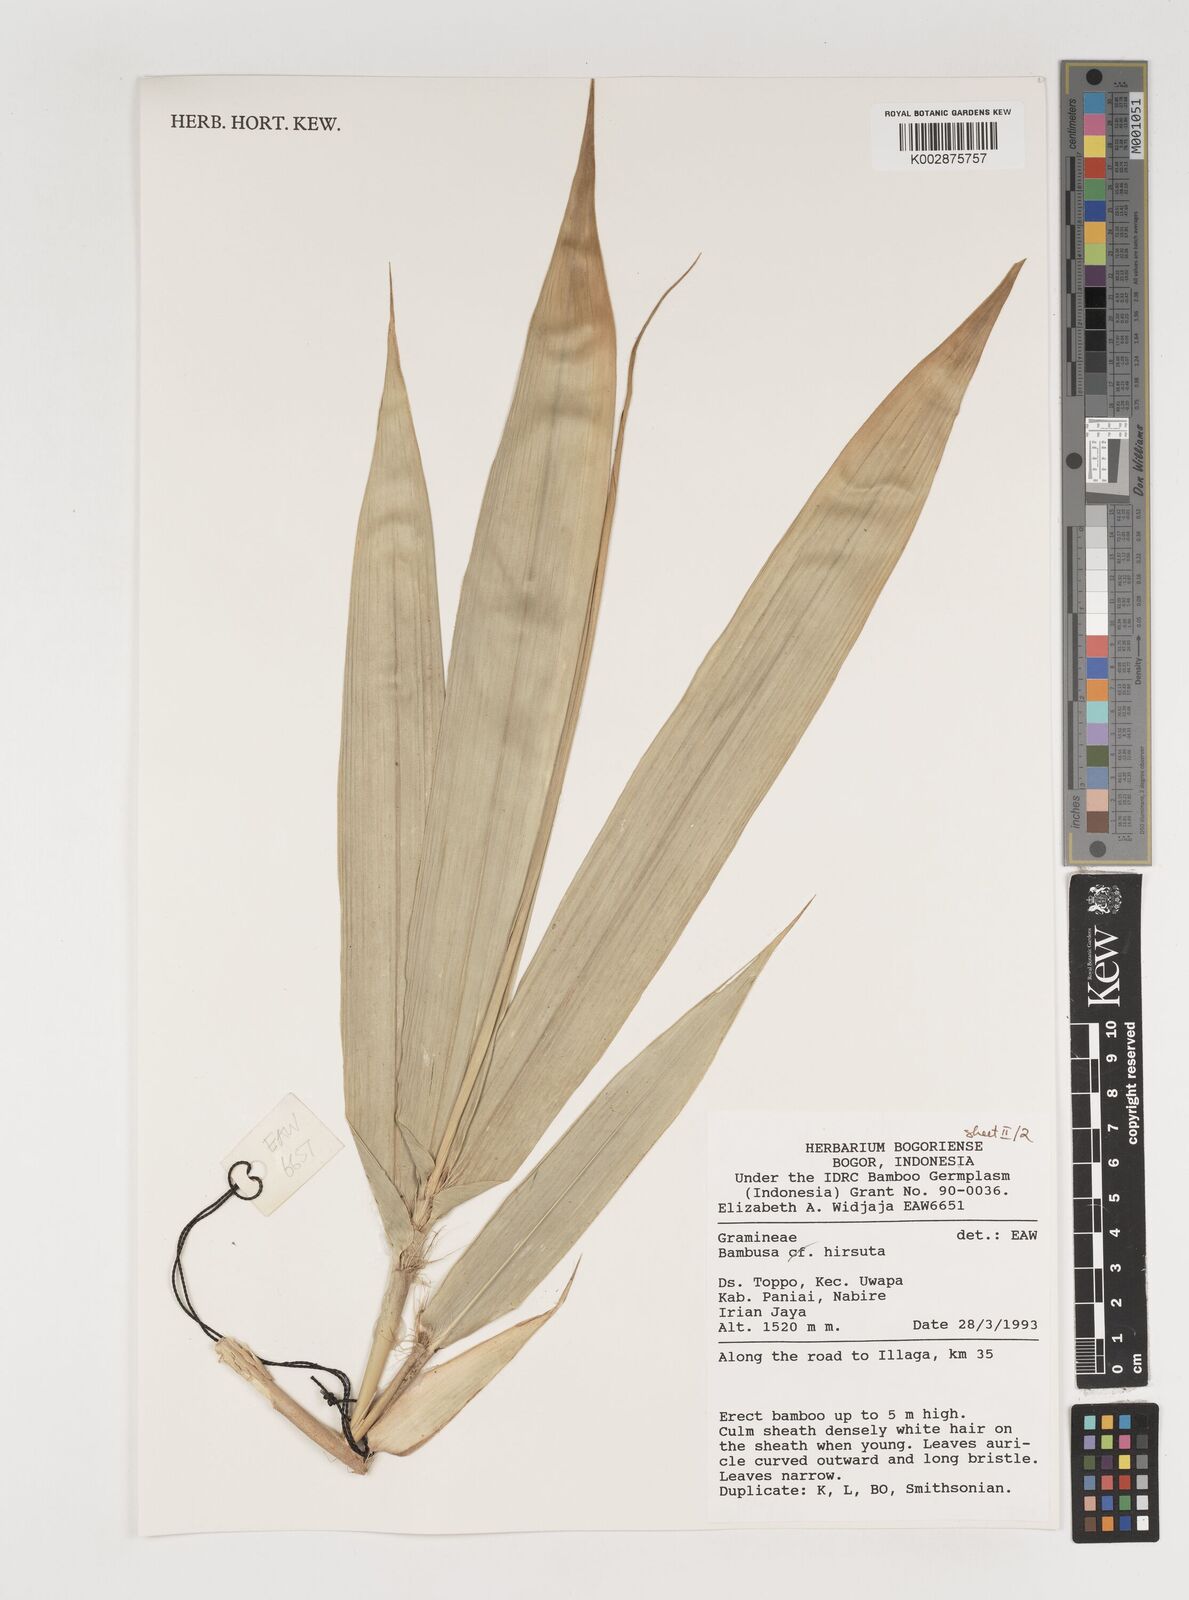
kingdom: Plantae
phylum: Tracheophyta
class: Liliopsida
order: Poales
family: Poaceae
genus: Neololeba
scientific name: Neololeba hirsuta
